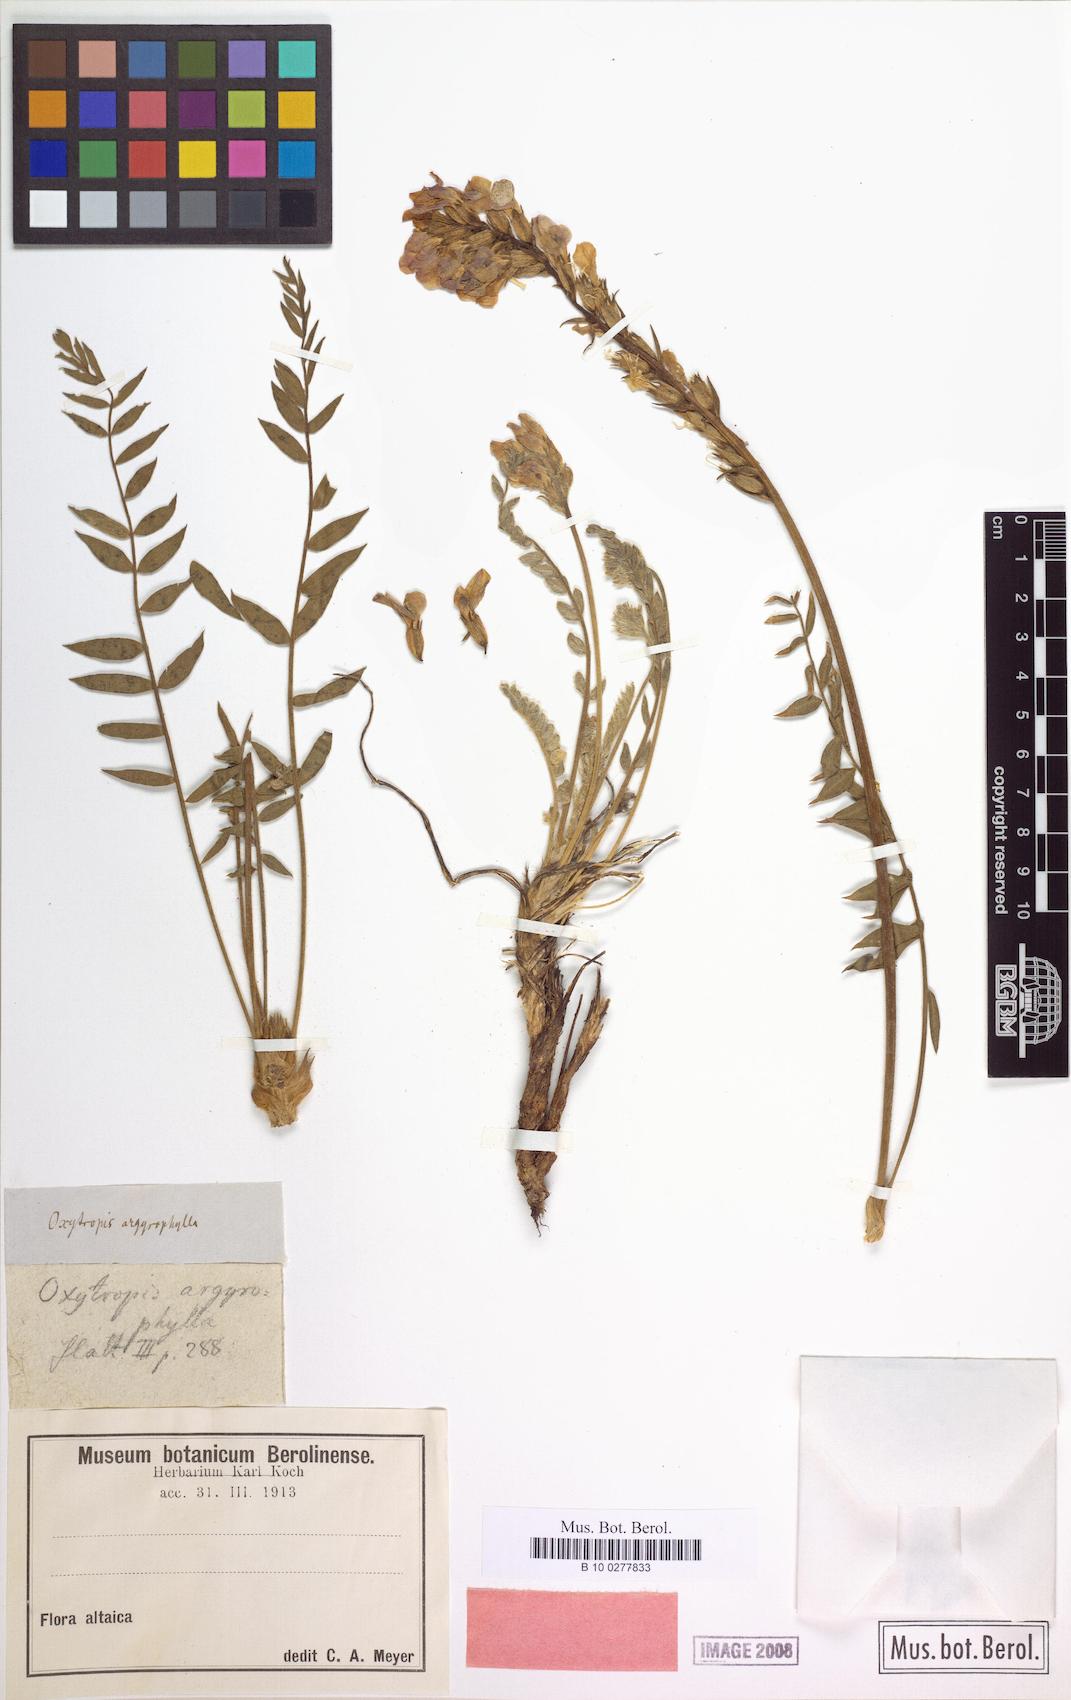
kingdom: Plantae
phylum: Tracheophyta
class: Magnoliopsida
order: Fabales
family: Fabaceae
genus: Oxytropis
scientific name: Oxytropis nana
